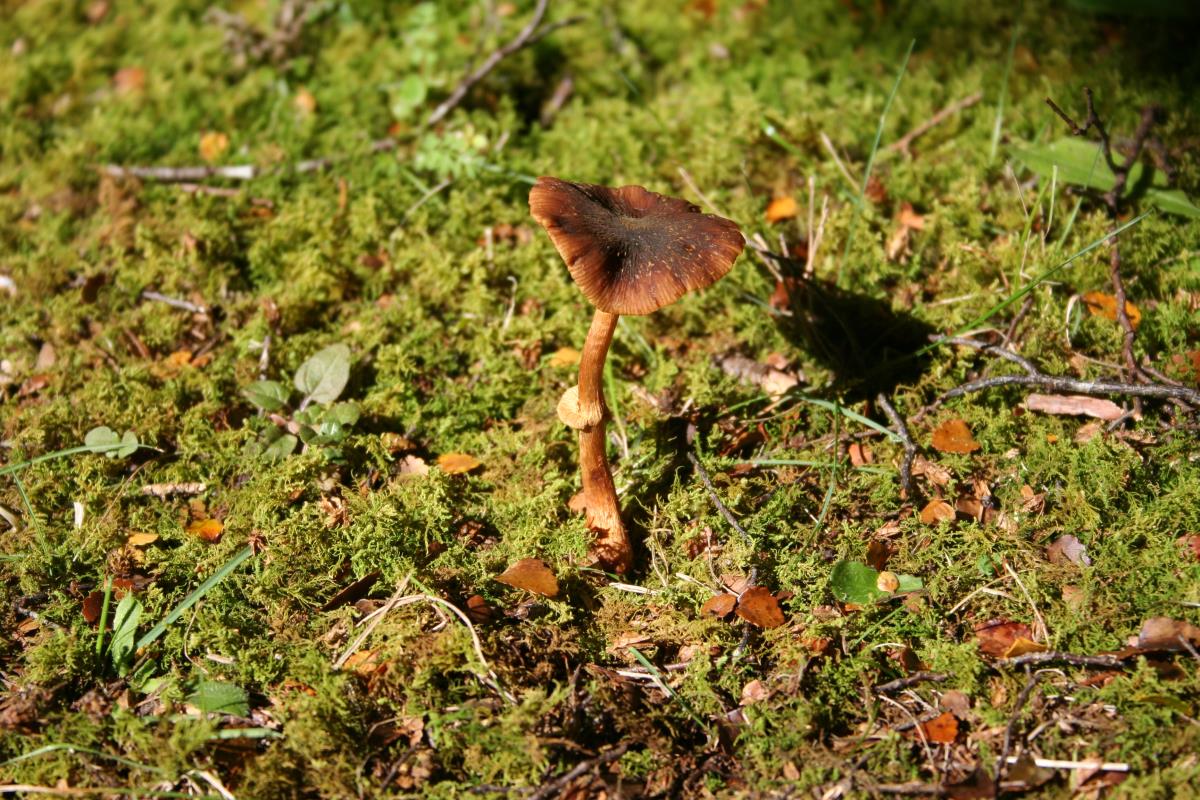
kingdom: Fungi
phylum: Basidiomycota
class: Agaricomycetes
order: Agaricales
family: Bolbitiaceae
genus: Descolea
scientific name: Descolea
